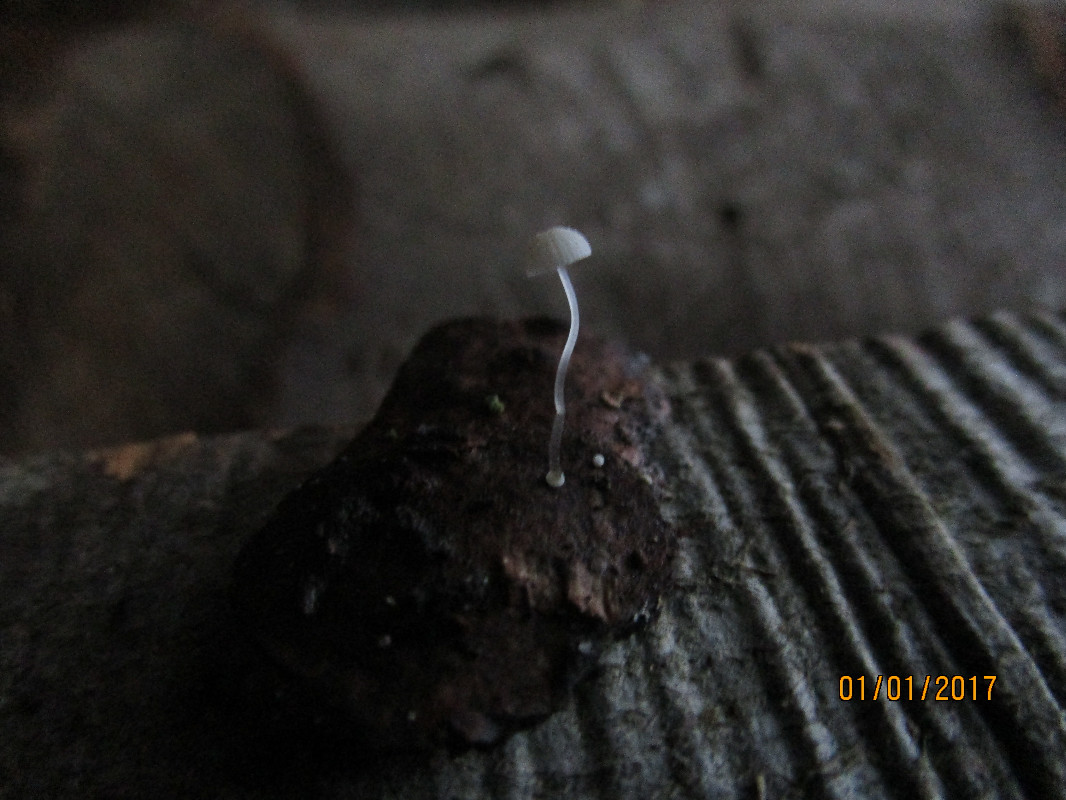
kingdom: Fungi
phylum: Basidiomycota
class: Agaricomycetes
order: Agaricales
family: Mycenaceae
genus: Mycena
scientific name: Mycena tenerrima
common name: pudret huesvamp
